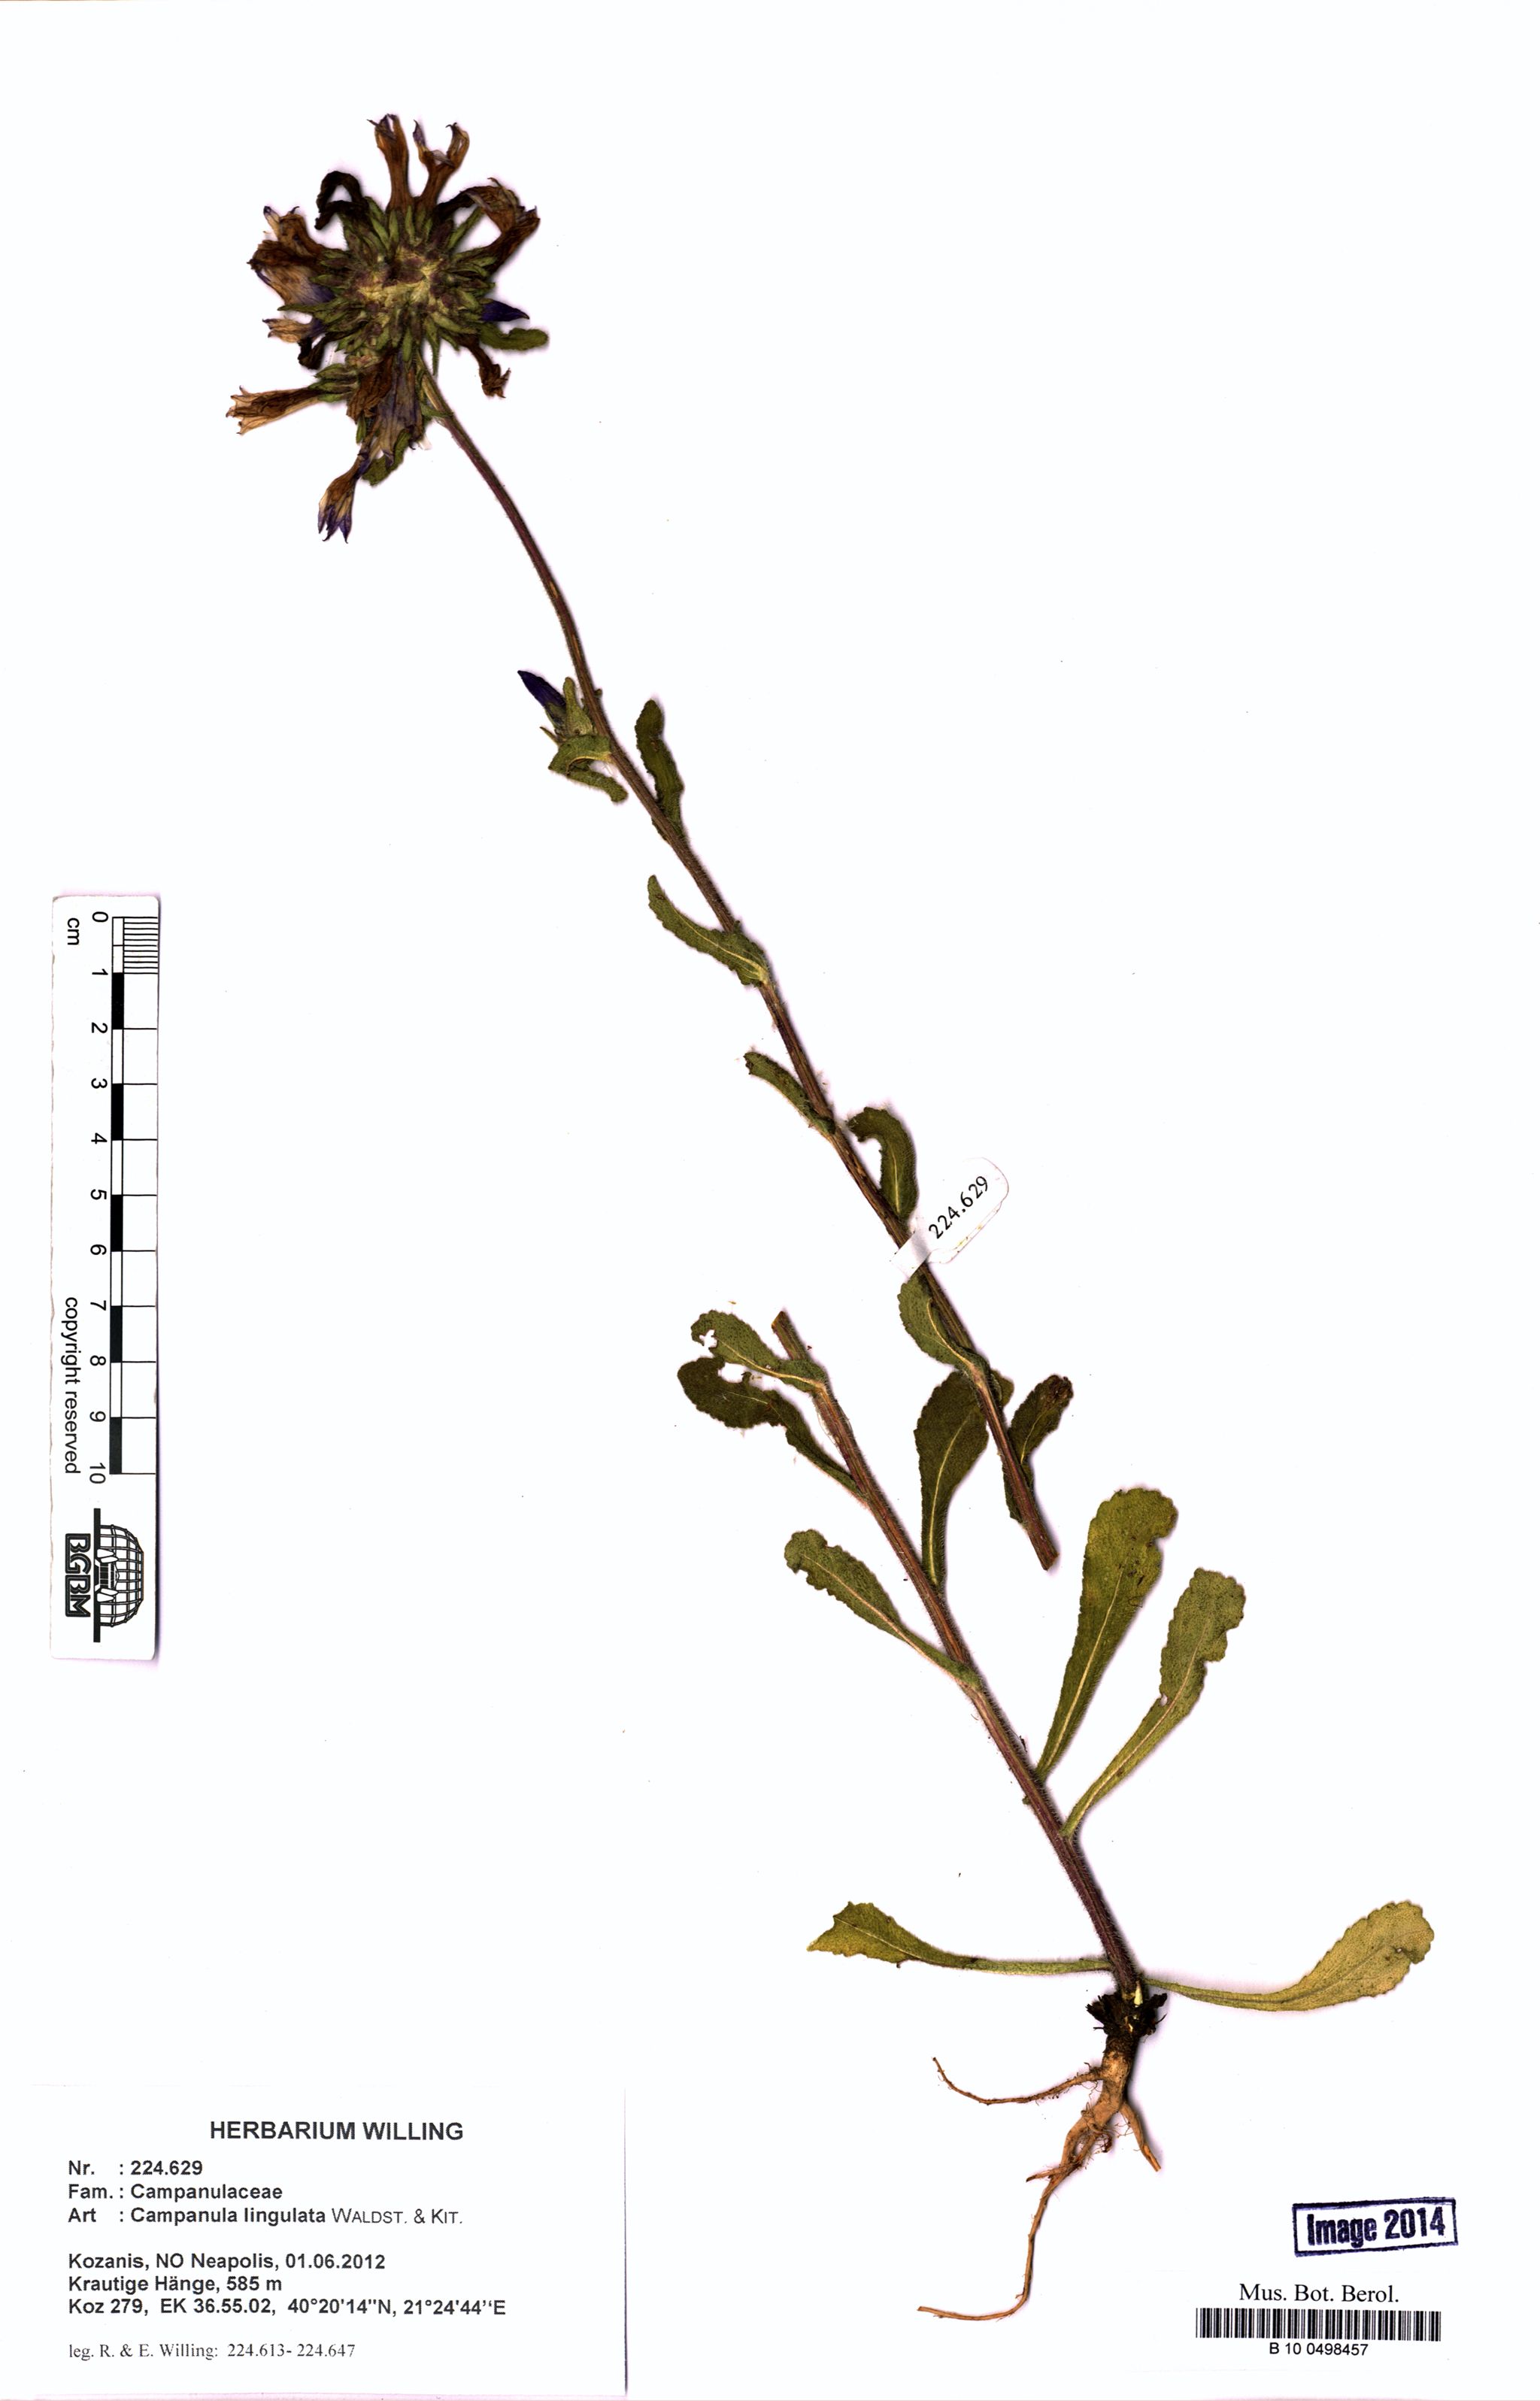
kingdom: Plantae
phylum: Tracheophyta
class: Magnoliopsida
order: Asterales
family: Campanulaceae
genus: Campanula
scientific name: Campanula lingulata
